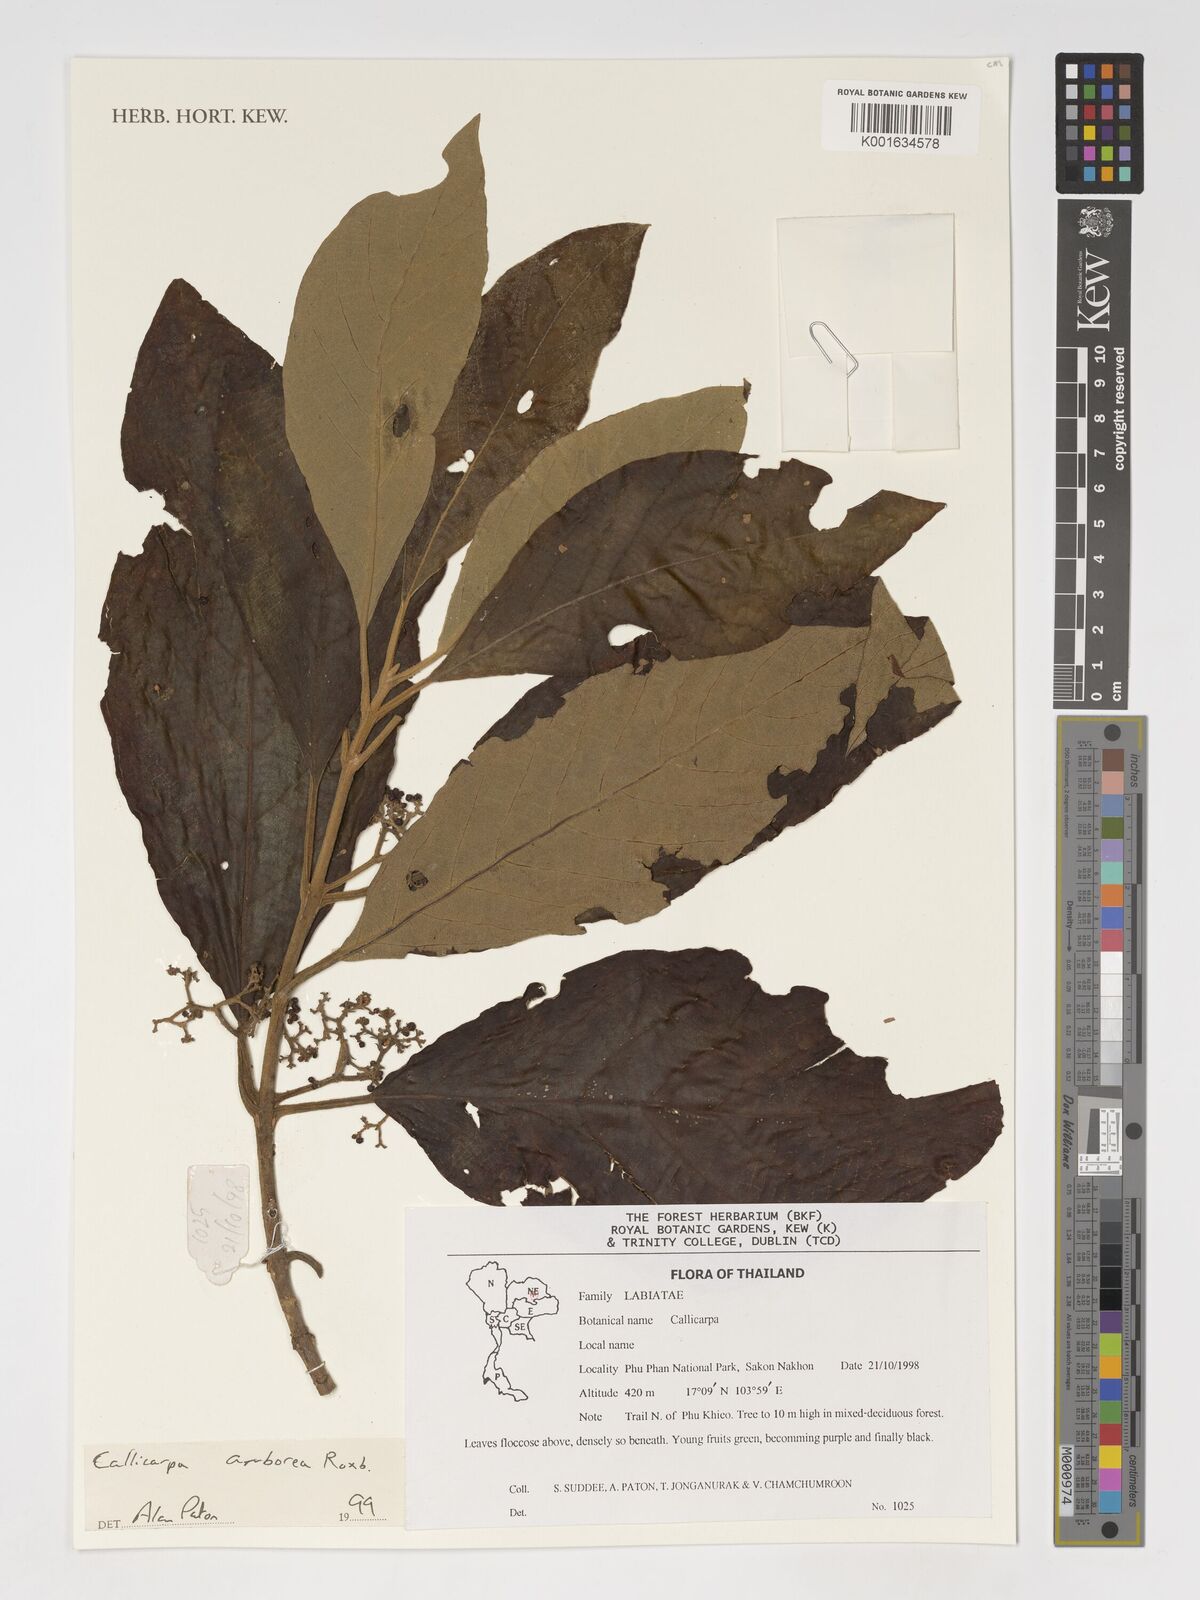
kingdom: Plantae
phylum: Tracheophyta
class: Magnoliopsida
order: Lamiales
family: Lamiaceae
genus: Callicarpa
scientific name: Callicarpa arborea
